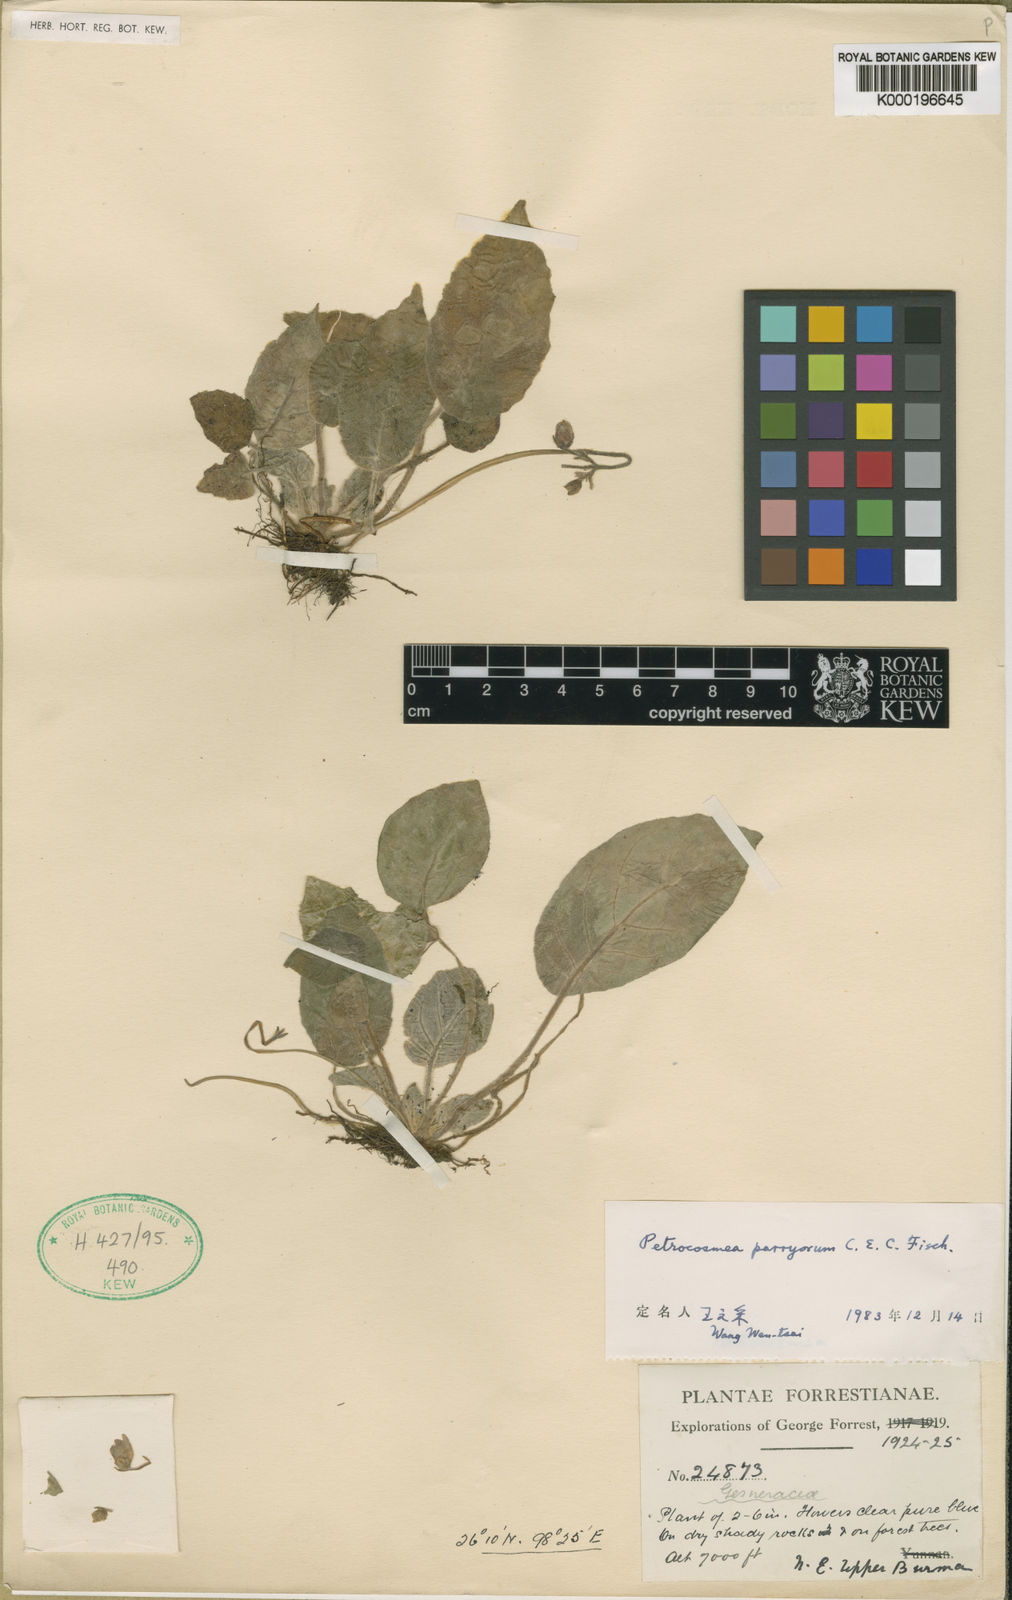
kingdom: Plantae
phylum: Tracheophyta
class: Magnoliopsida
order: Lamiales
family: Gesneriaceae
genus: Petrocosmea
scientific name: Petrocosmea parryorum
